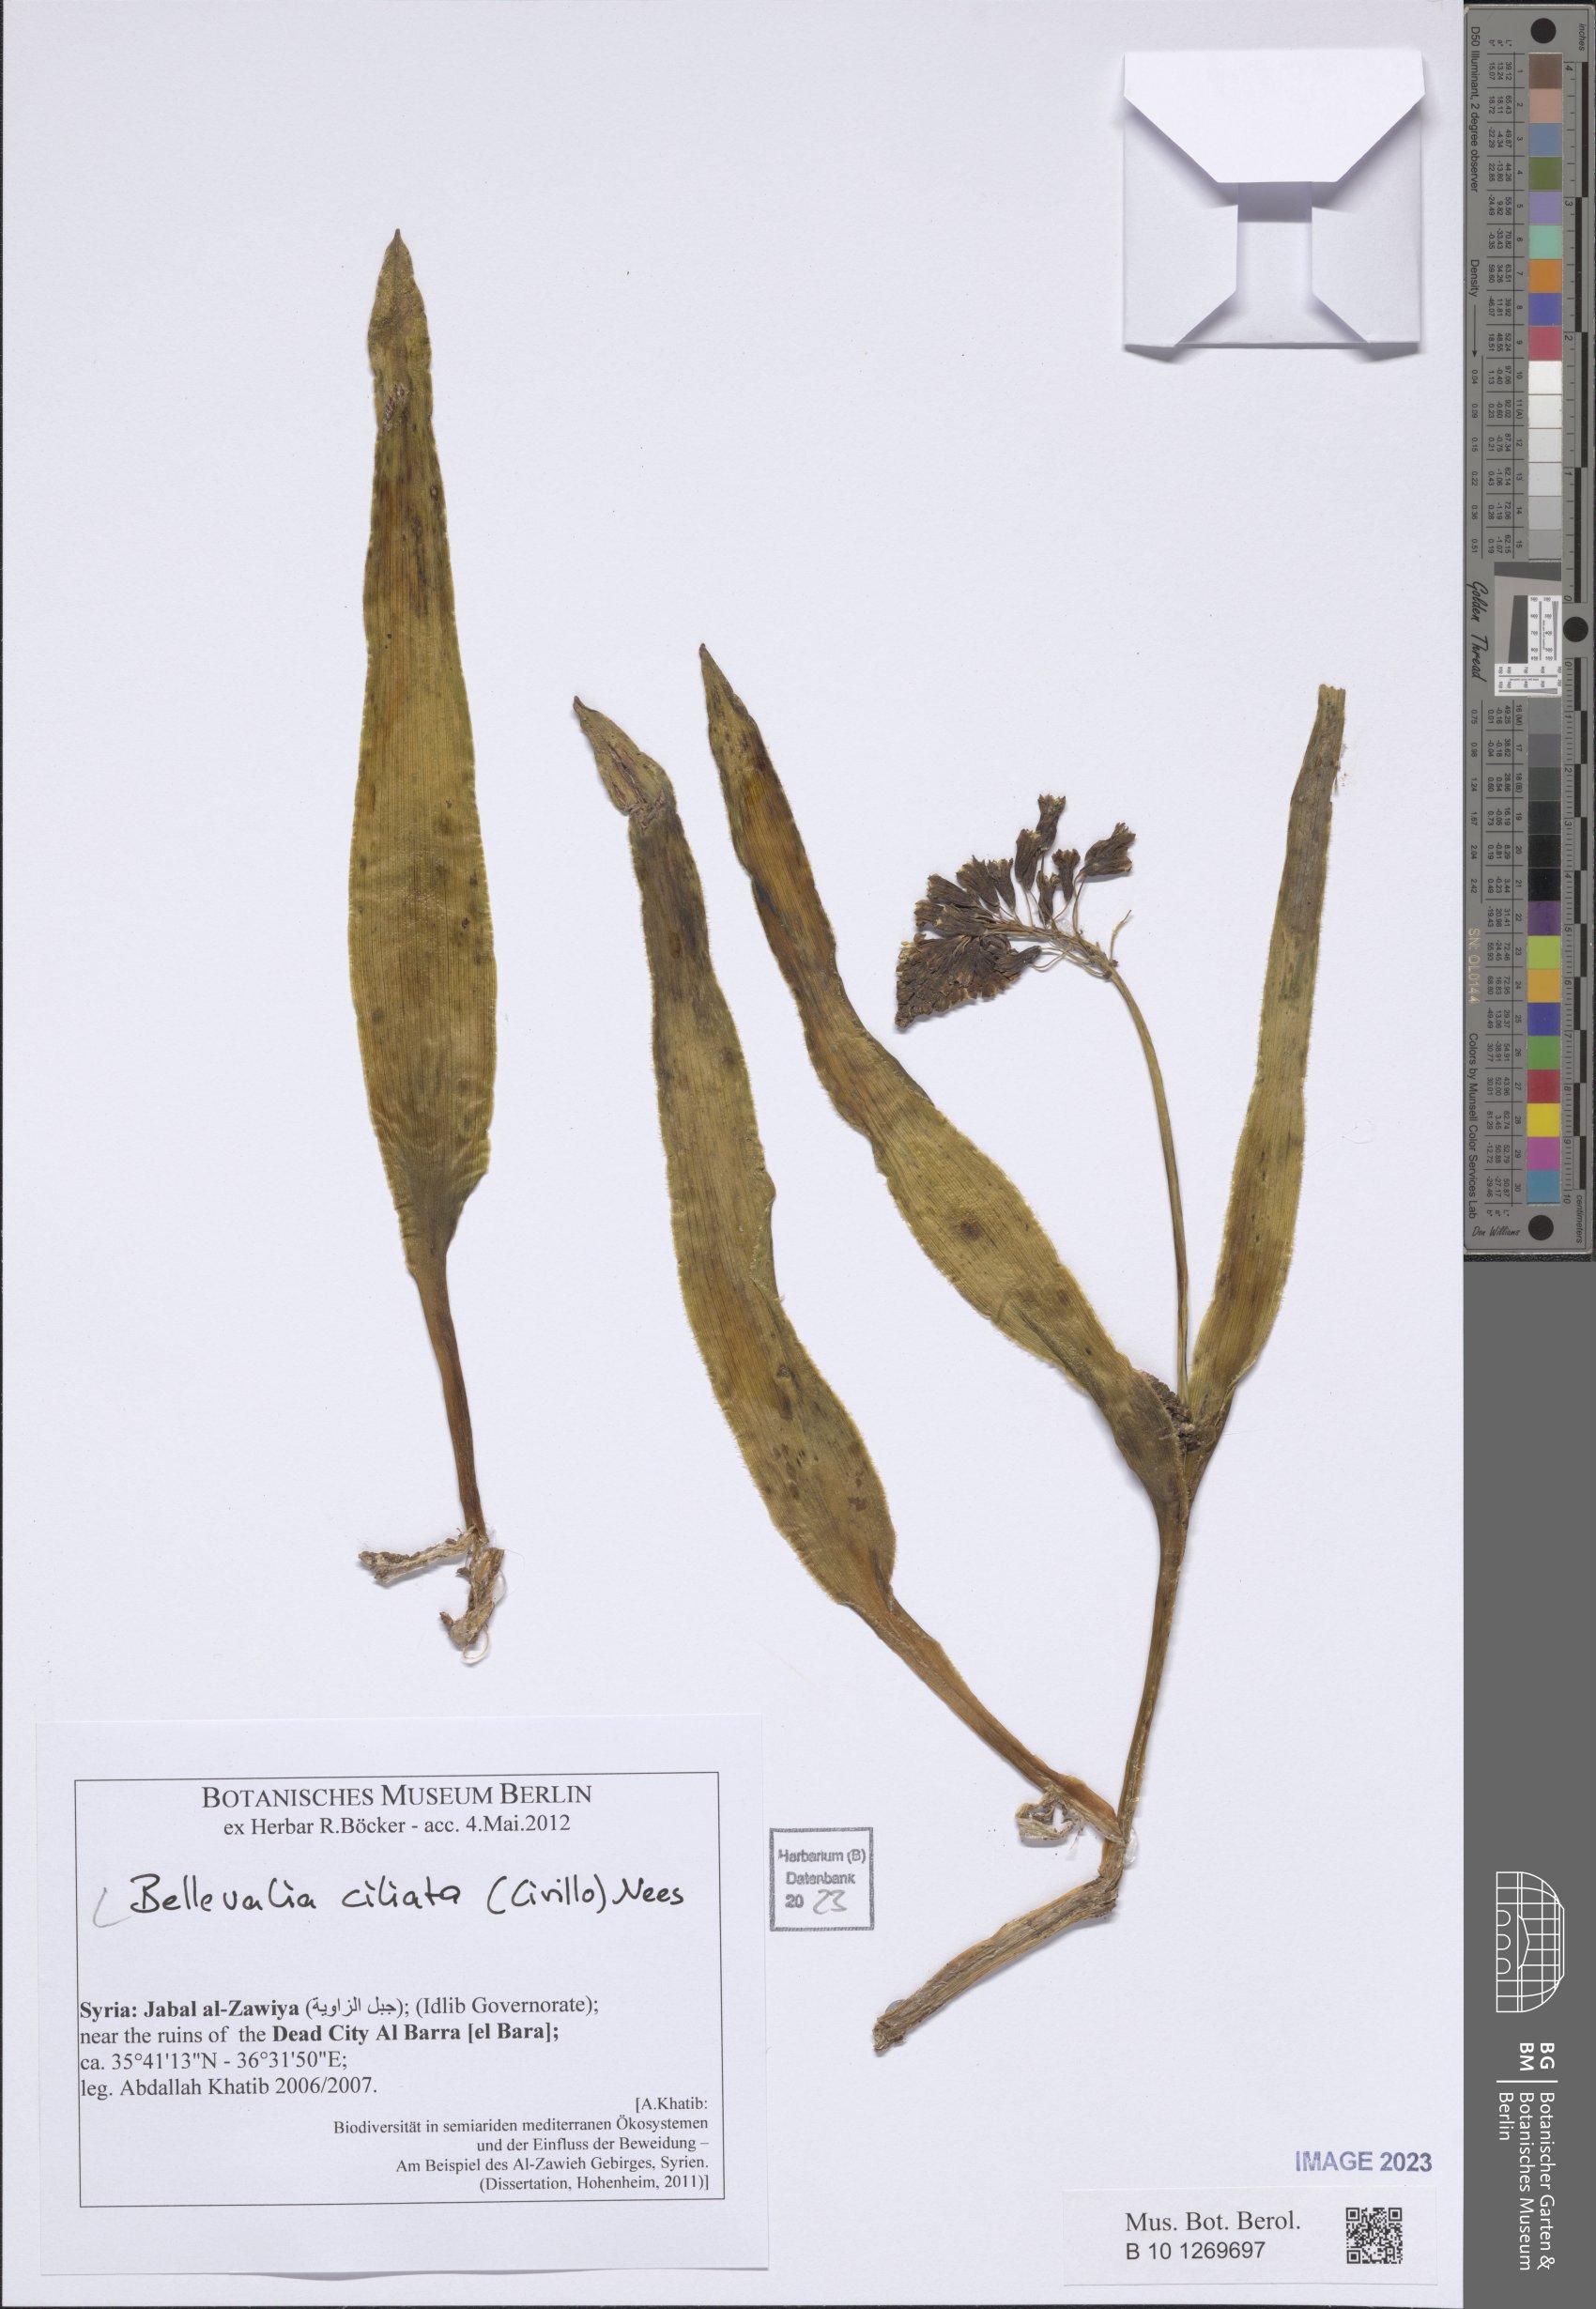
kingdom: Plantae
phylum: Tracheophyta
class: Liliopsida
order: Asparagales
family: Asparagaceae
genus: Bellevalia
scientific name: Bellevalia ciliata
